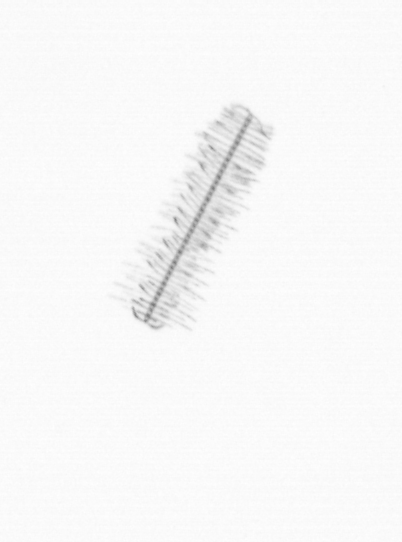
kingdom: Chromista
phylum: Ochrophyta
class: Bacillariophyceae
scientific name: Bacillariophyceae
